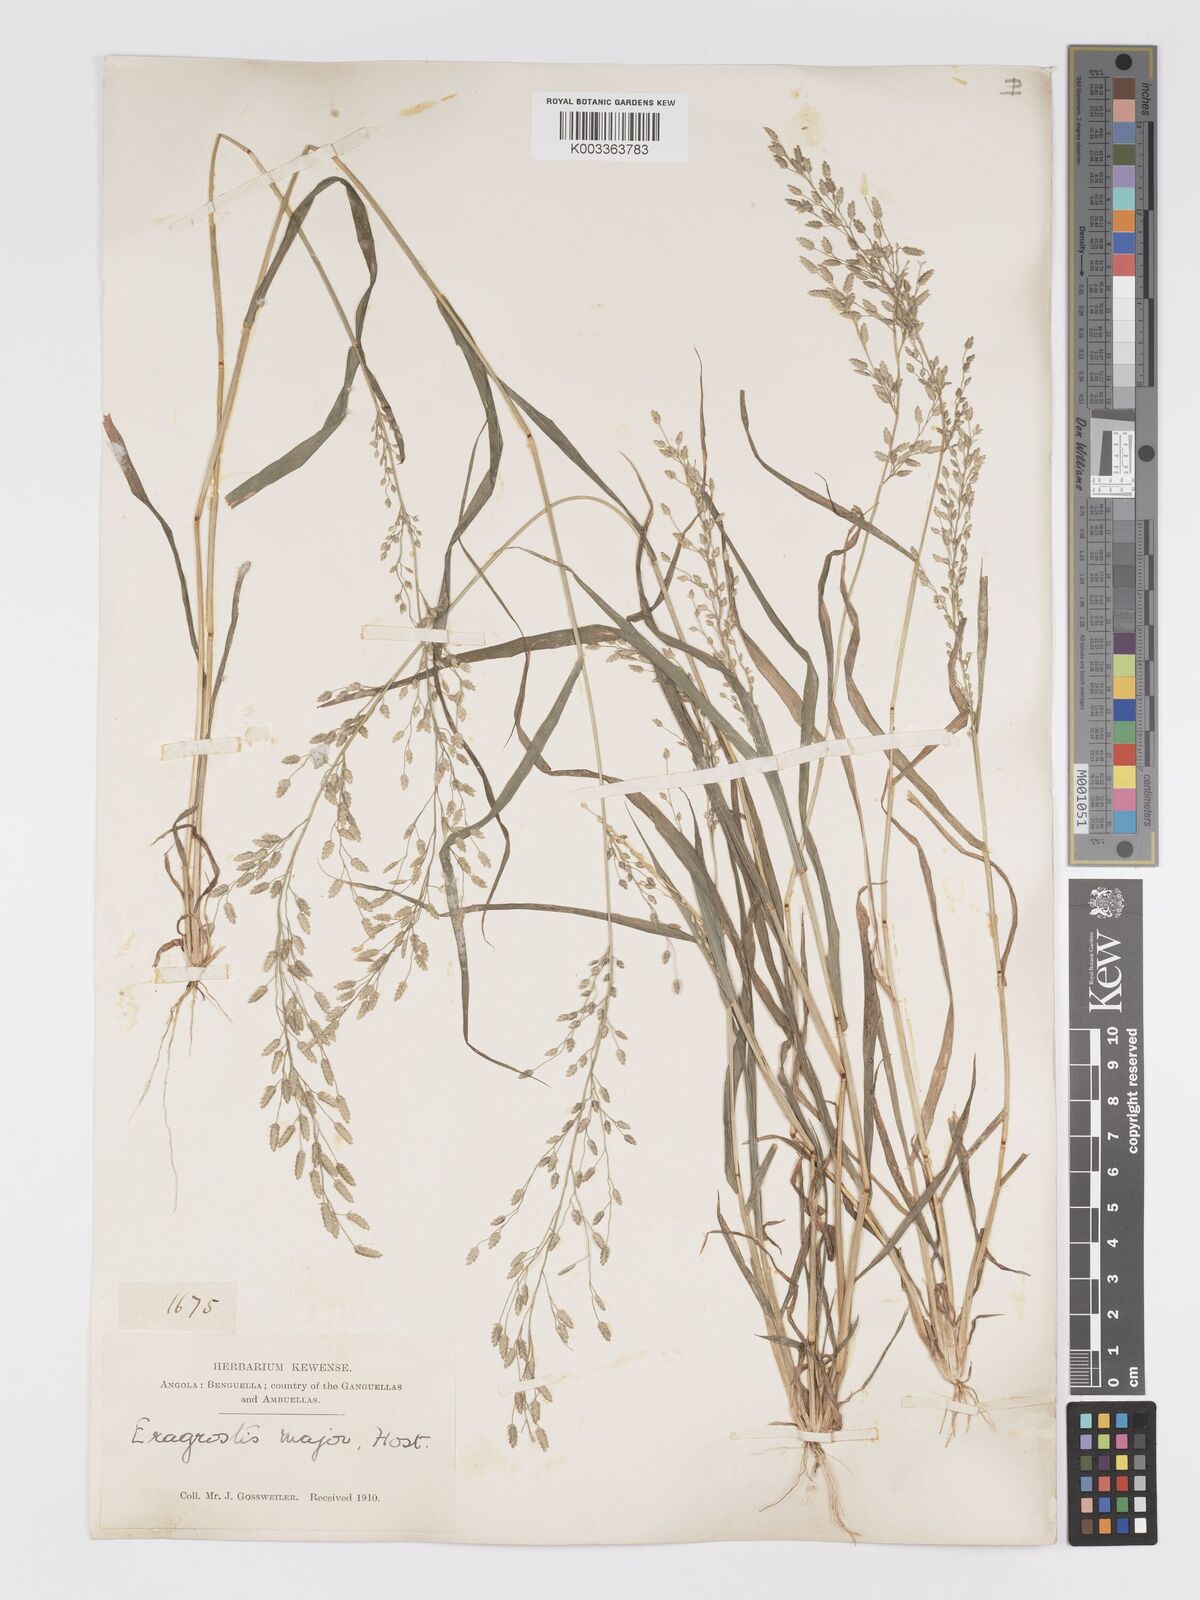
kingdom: Plantae
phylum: Tracheophyta
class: Liliopsida
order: Poales
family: Poaceae
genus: Eragrostis
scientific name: Eragrostis cilianensis
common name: Stinkgrass
